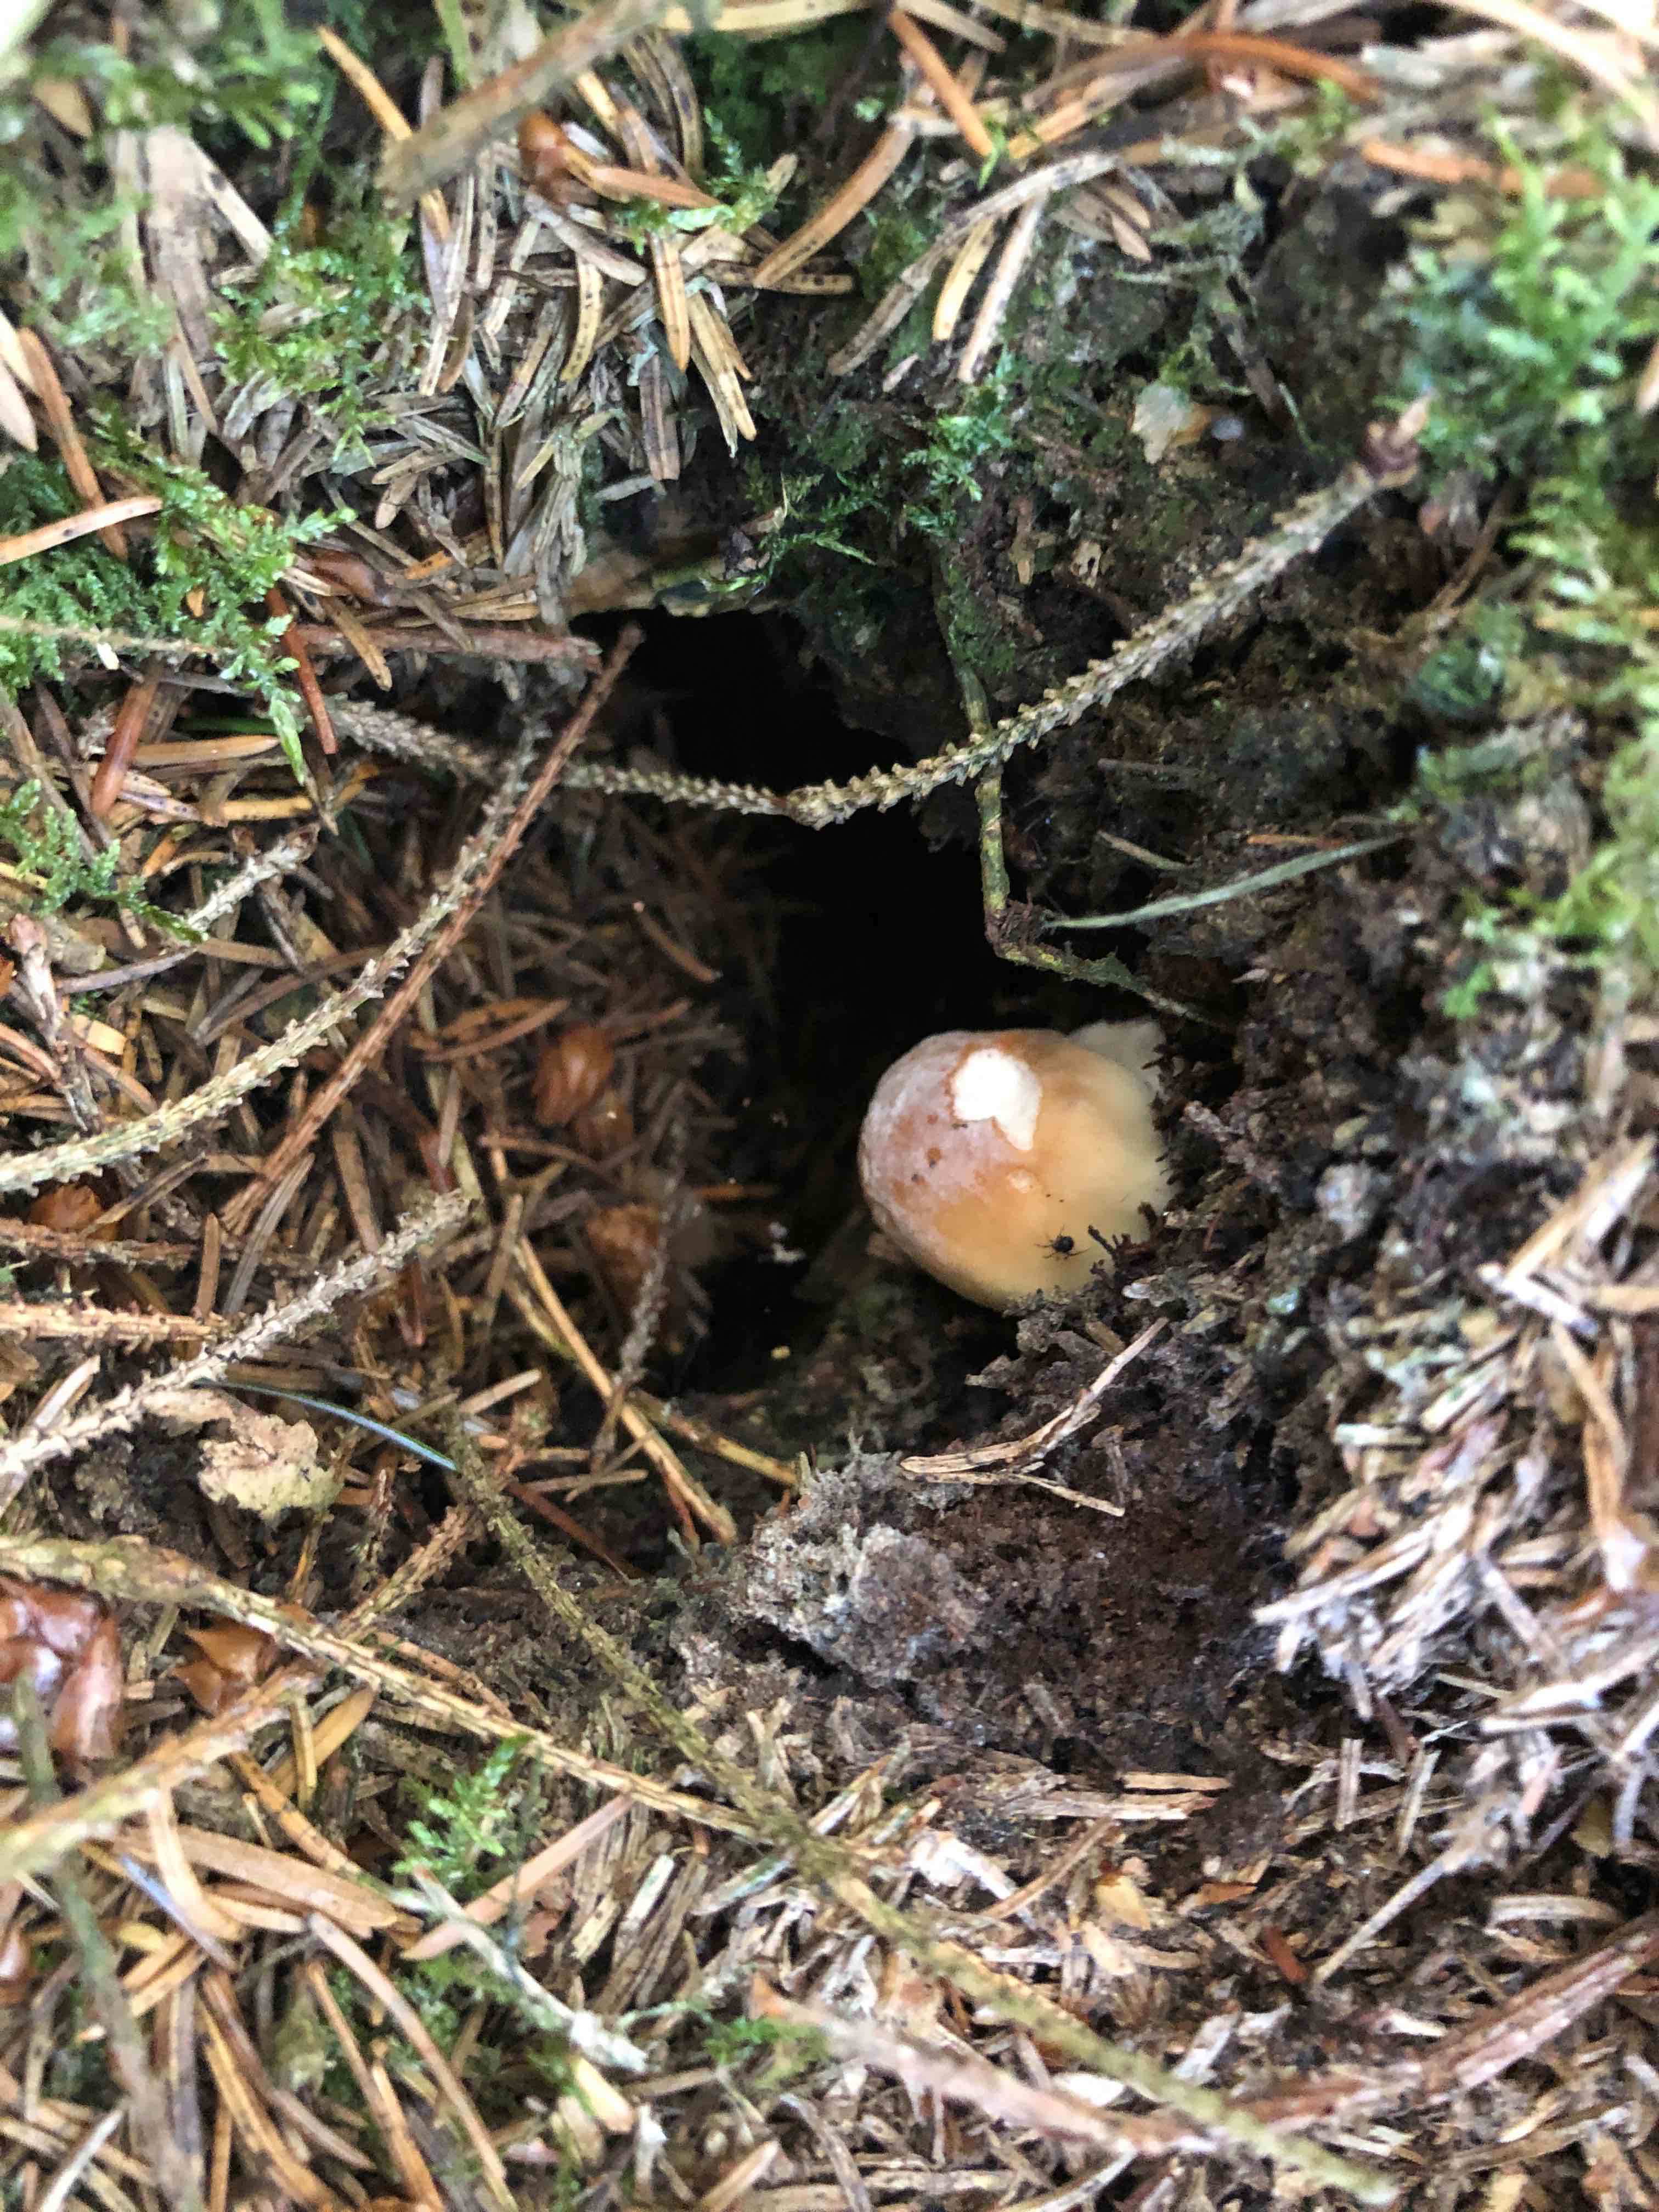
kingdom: Fungi
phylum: Basidiomycota
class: Agaricomycetes
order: Boletales
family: Boletaceae
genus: Boletus
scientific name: Boletus edulis
